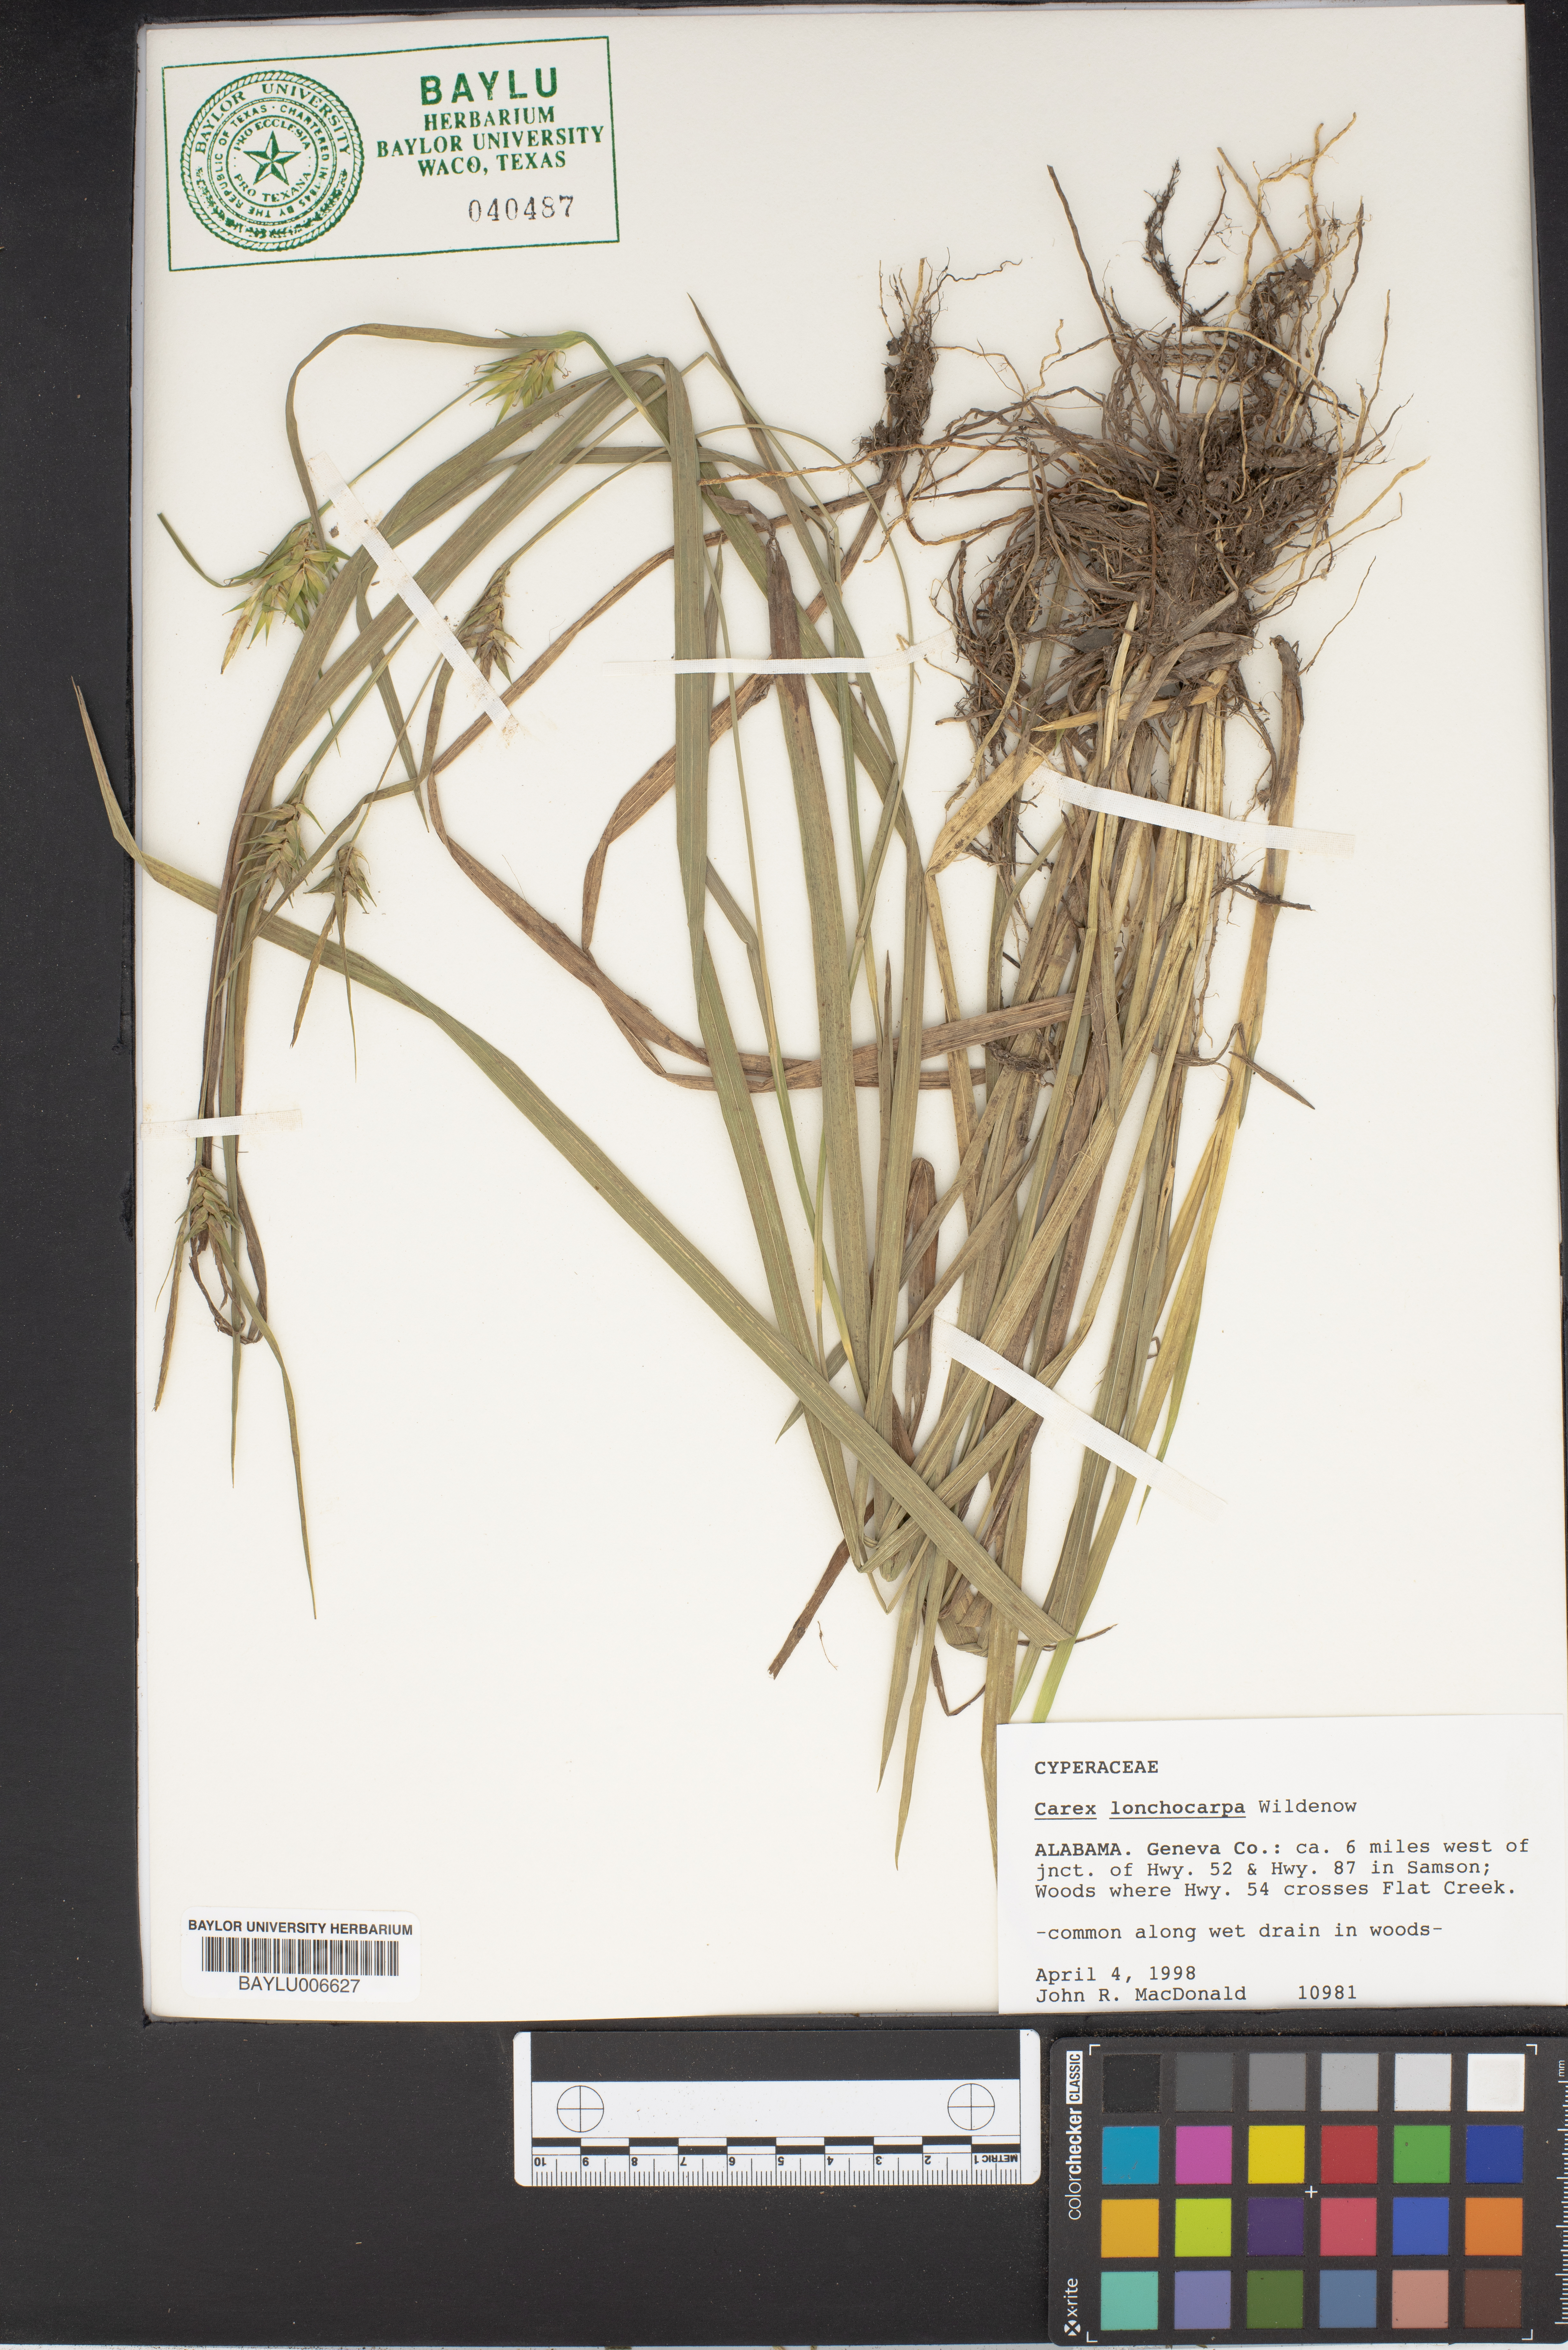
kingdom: Plantae
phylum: Tracheophyta
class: Liliopsida
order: Poales
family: Cyperaceae
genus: Carex
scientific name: Carex lonchocarpa
